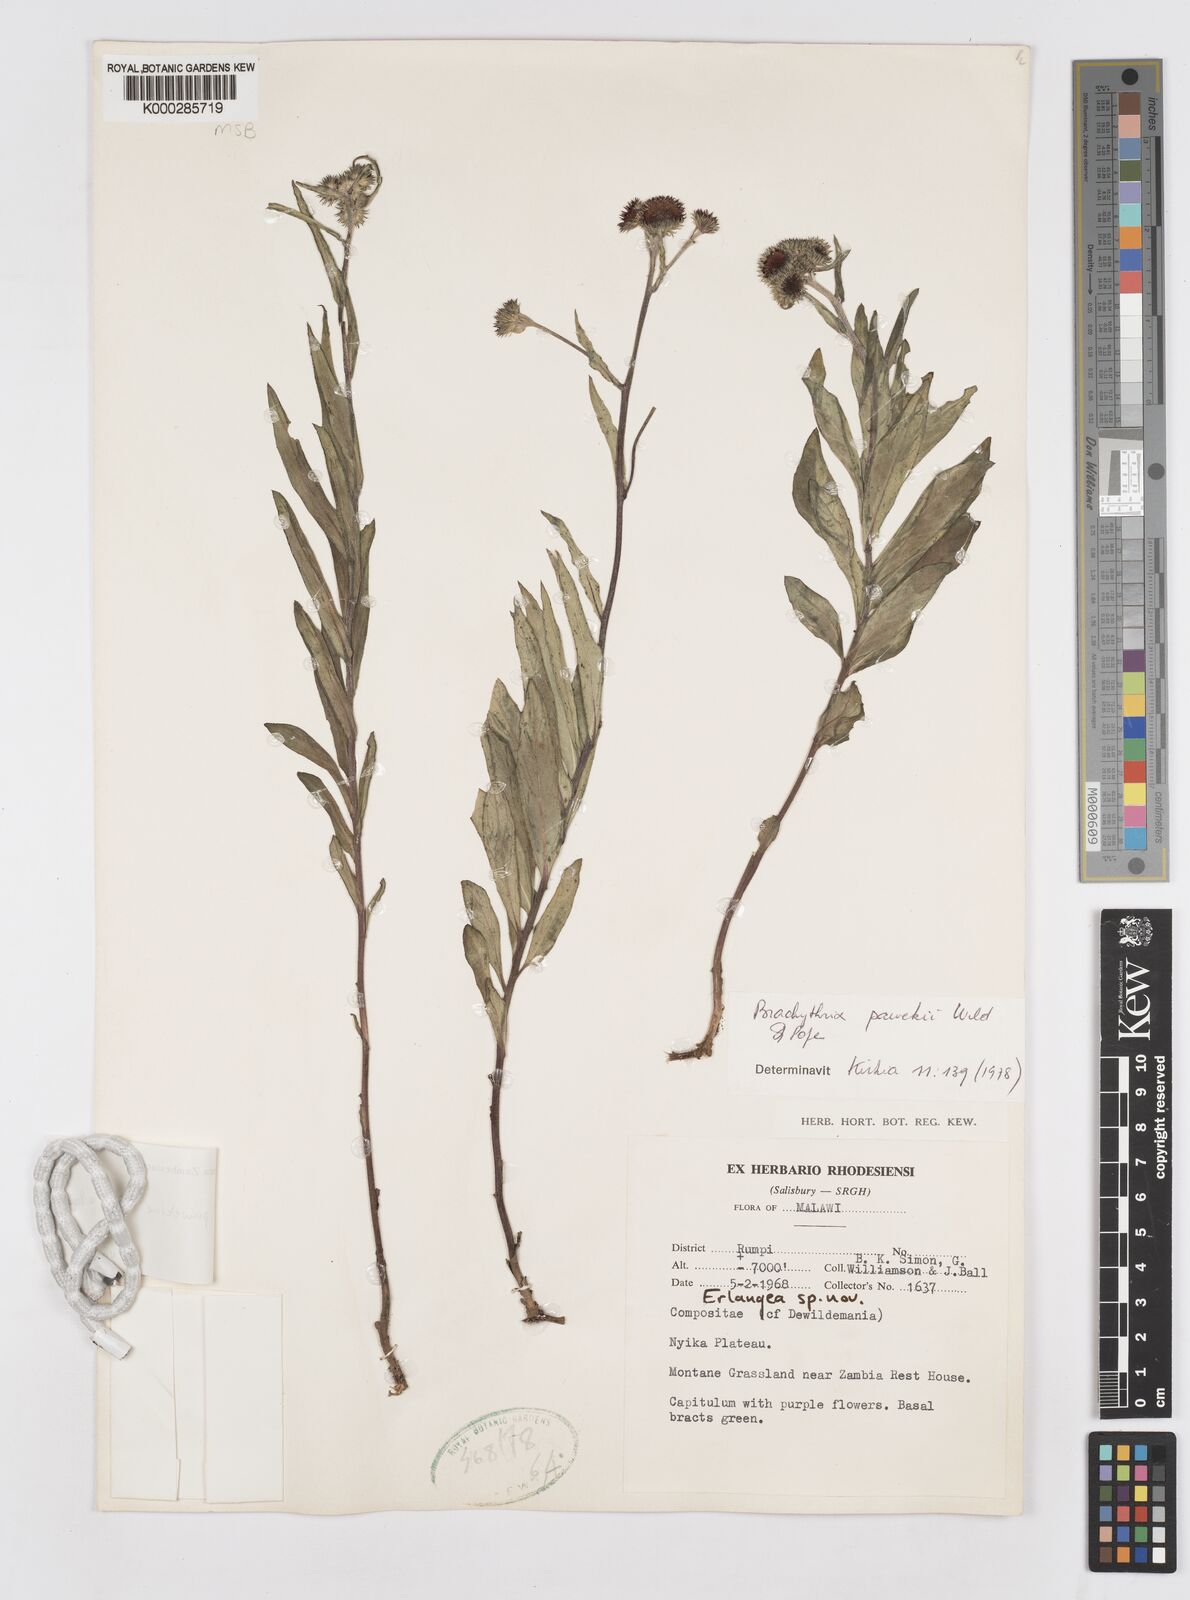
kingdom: Plantae
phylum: Tracheophyta
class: Magnoliopsida
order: Asterales
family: Asteraceae
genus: Brachythrix
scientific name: Brachythrix pawekiae
